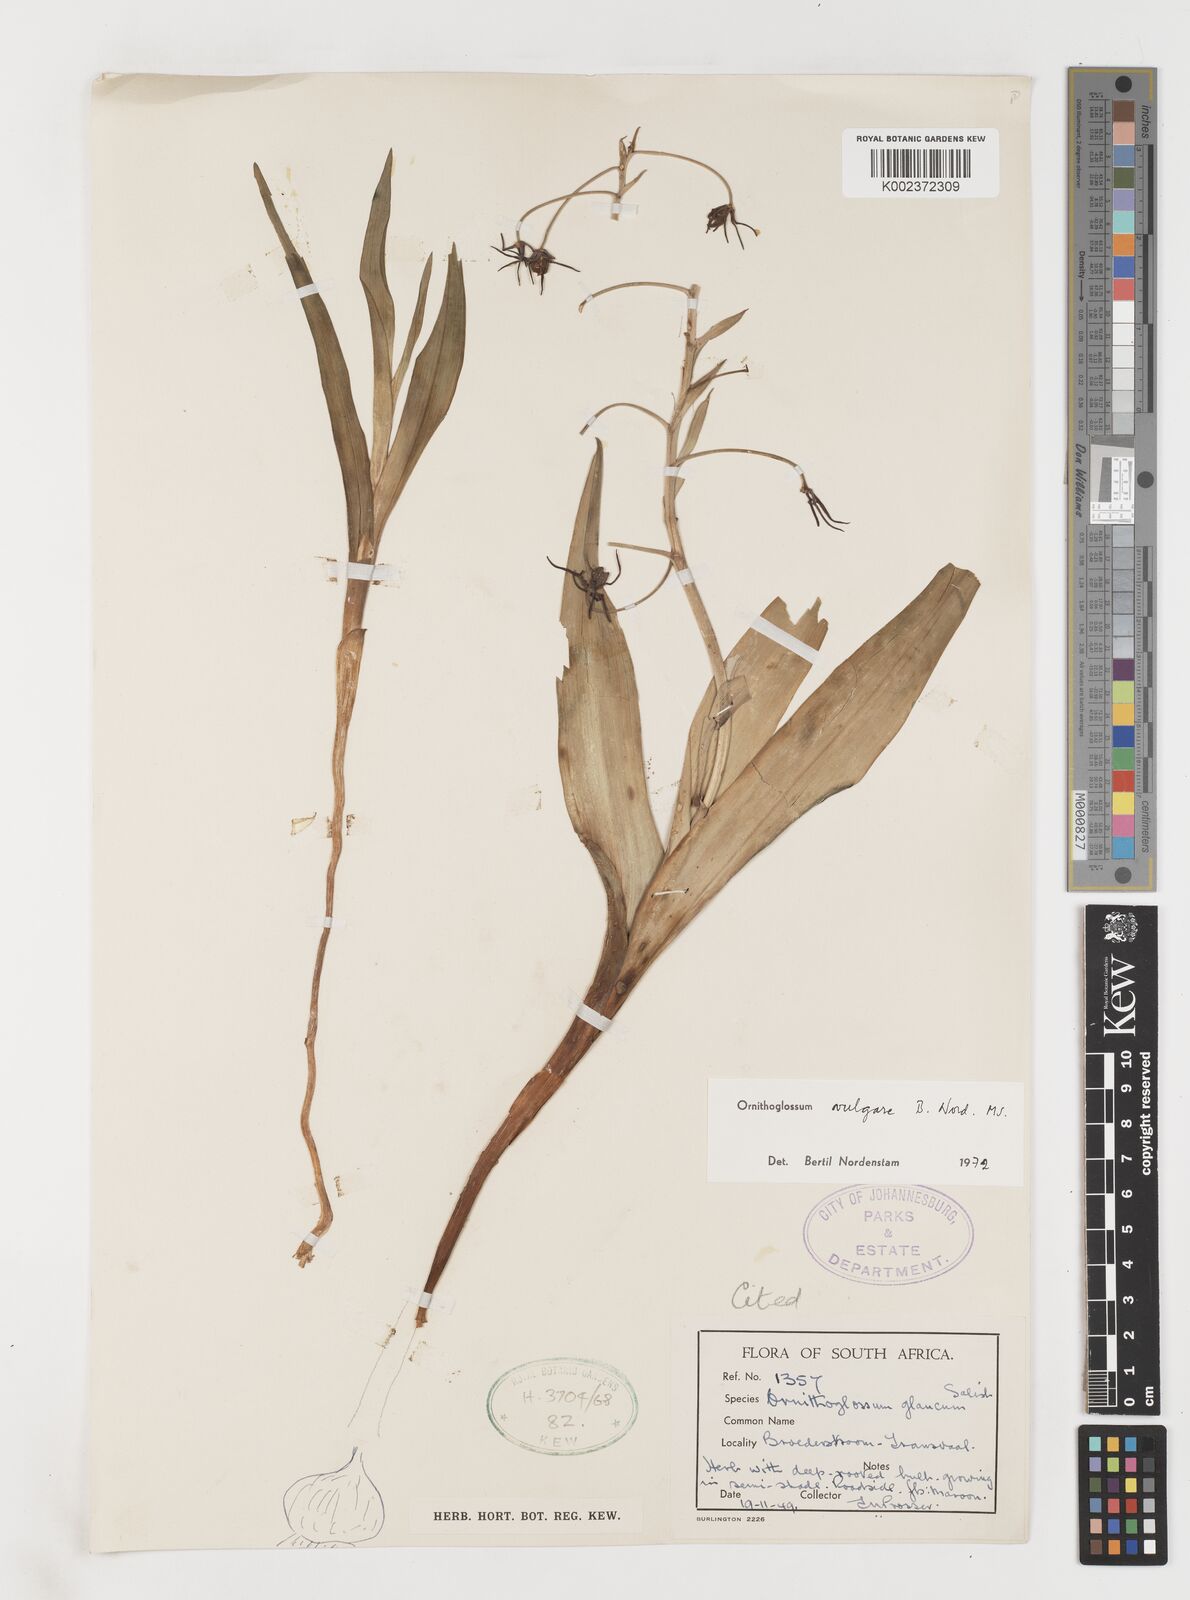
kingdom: Plantae
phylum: Tracheophyta
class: Liliopsida
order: Liliales
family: Colchicaceae
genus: Ornithoglossum
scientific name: Ornithoglossum vulgare
